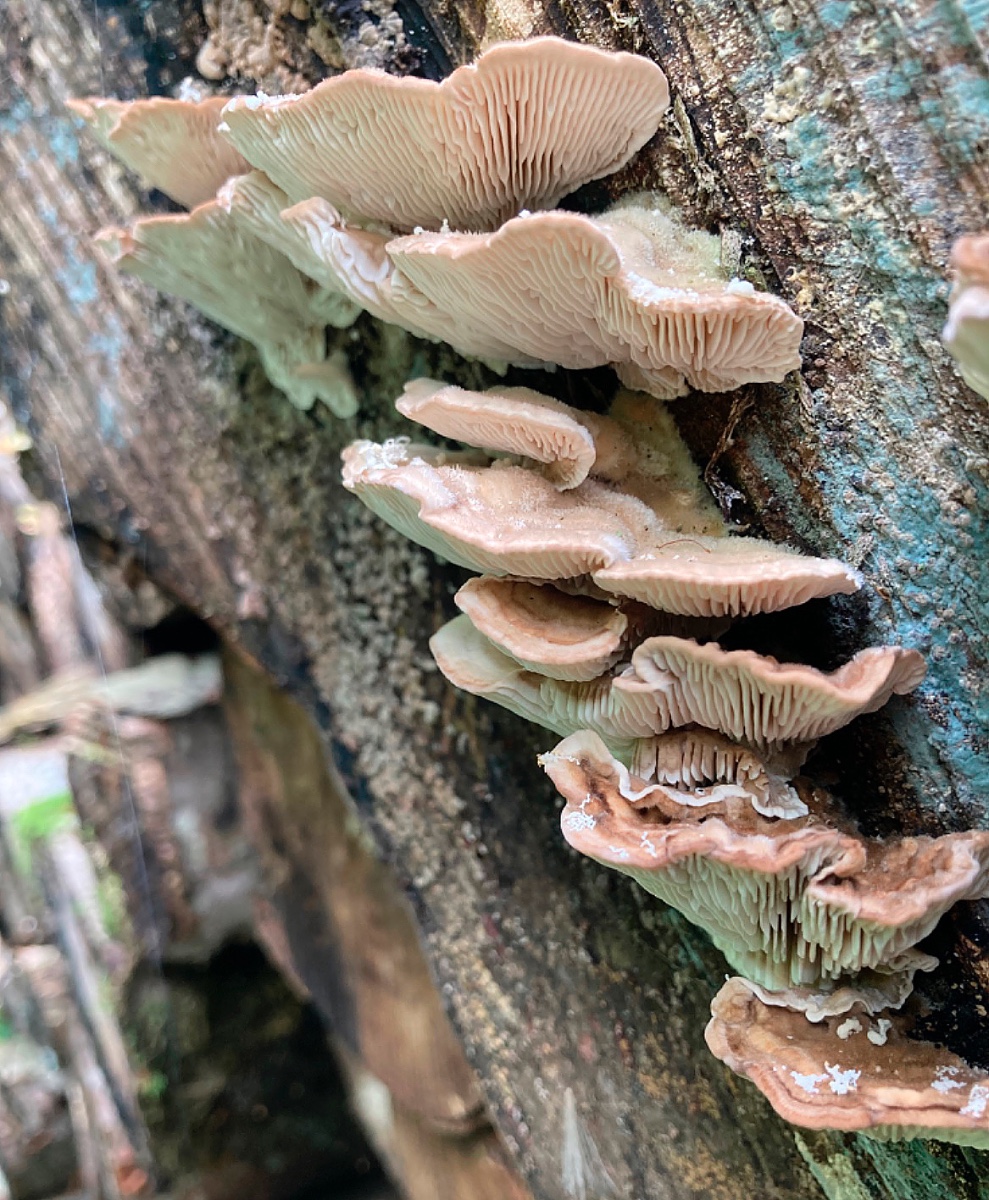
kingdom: Fungi
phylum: Basidiomycota
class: Agaricomycetes
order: Polyporales
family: Polyporaceae
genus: Lenzites
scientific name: Lenzites betulinus
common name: birke-læderporesvamp
